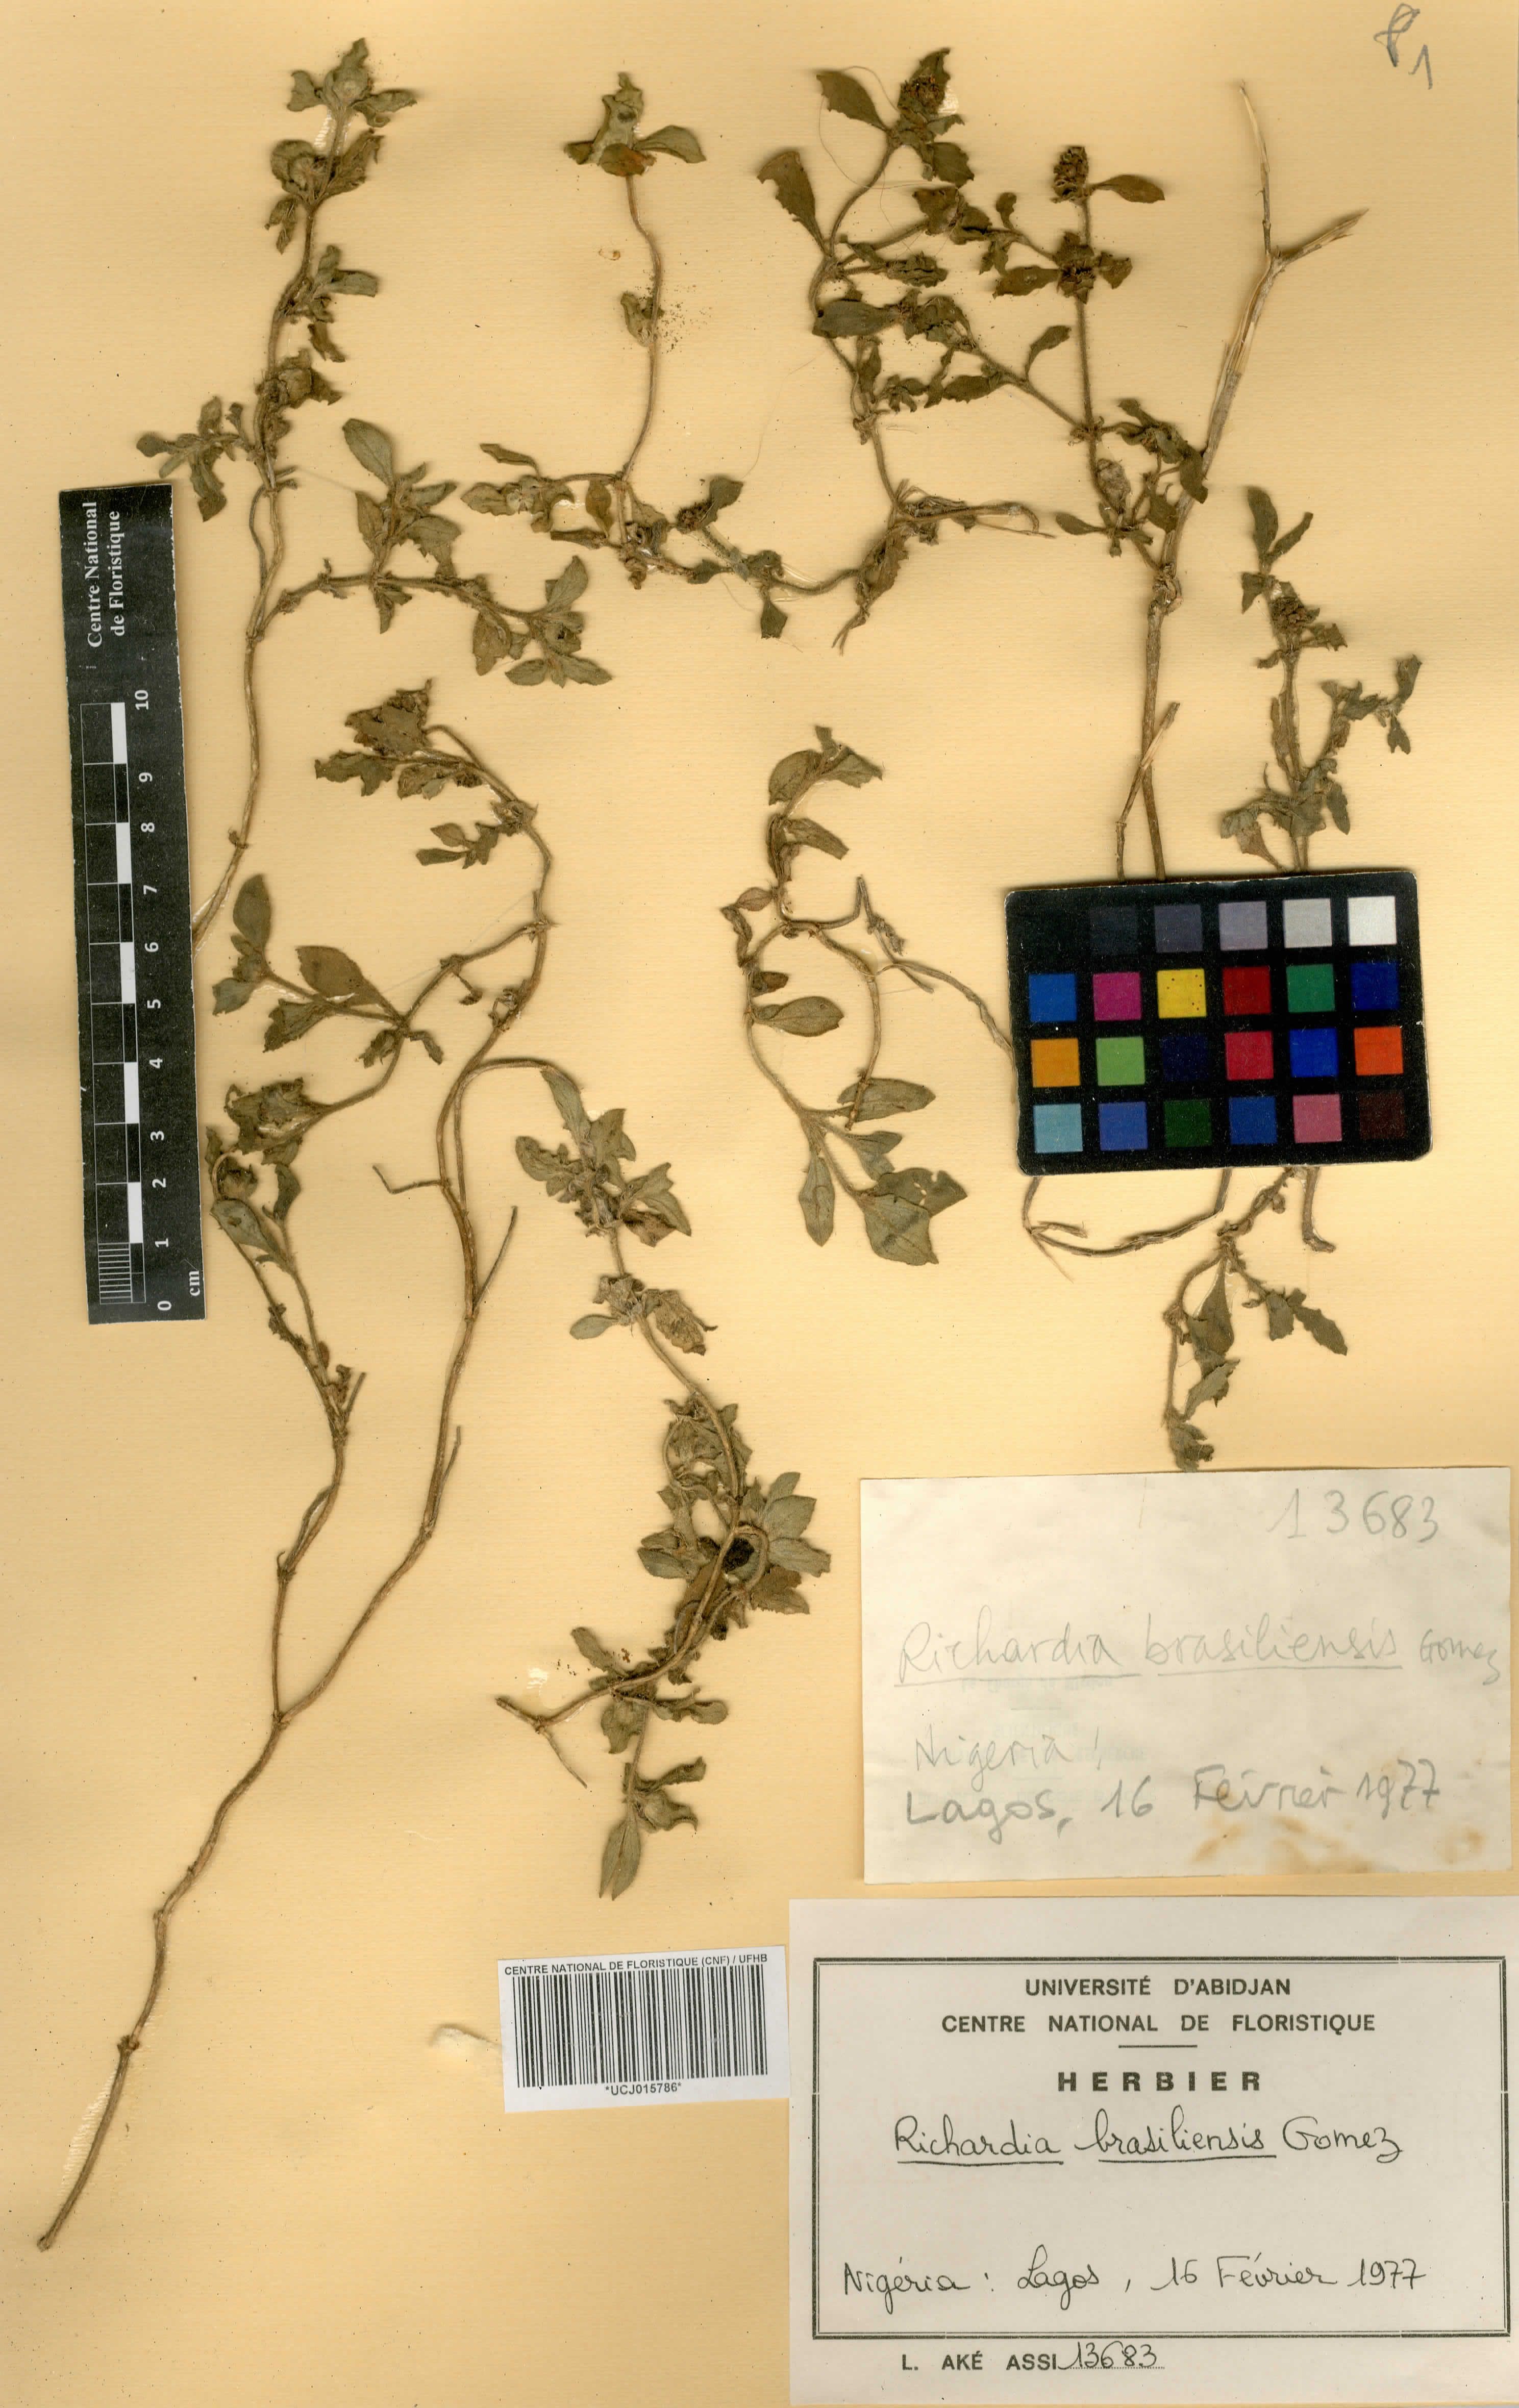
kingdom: Plantae
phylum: Tracheophyta
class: Magnoliopsida
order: Gentianales
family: Rubiaceae
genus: Richardia
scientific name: Richardia brasiliensis
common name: Tropical mexican clover
